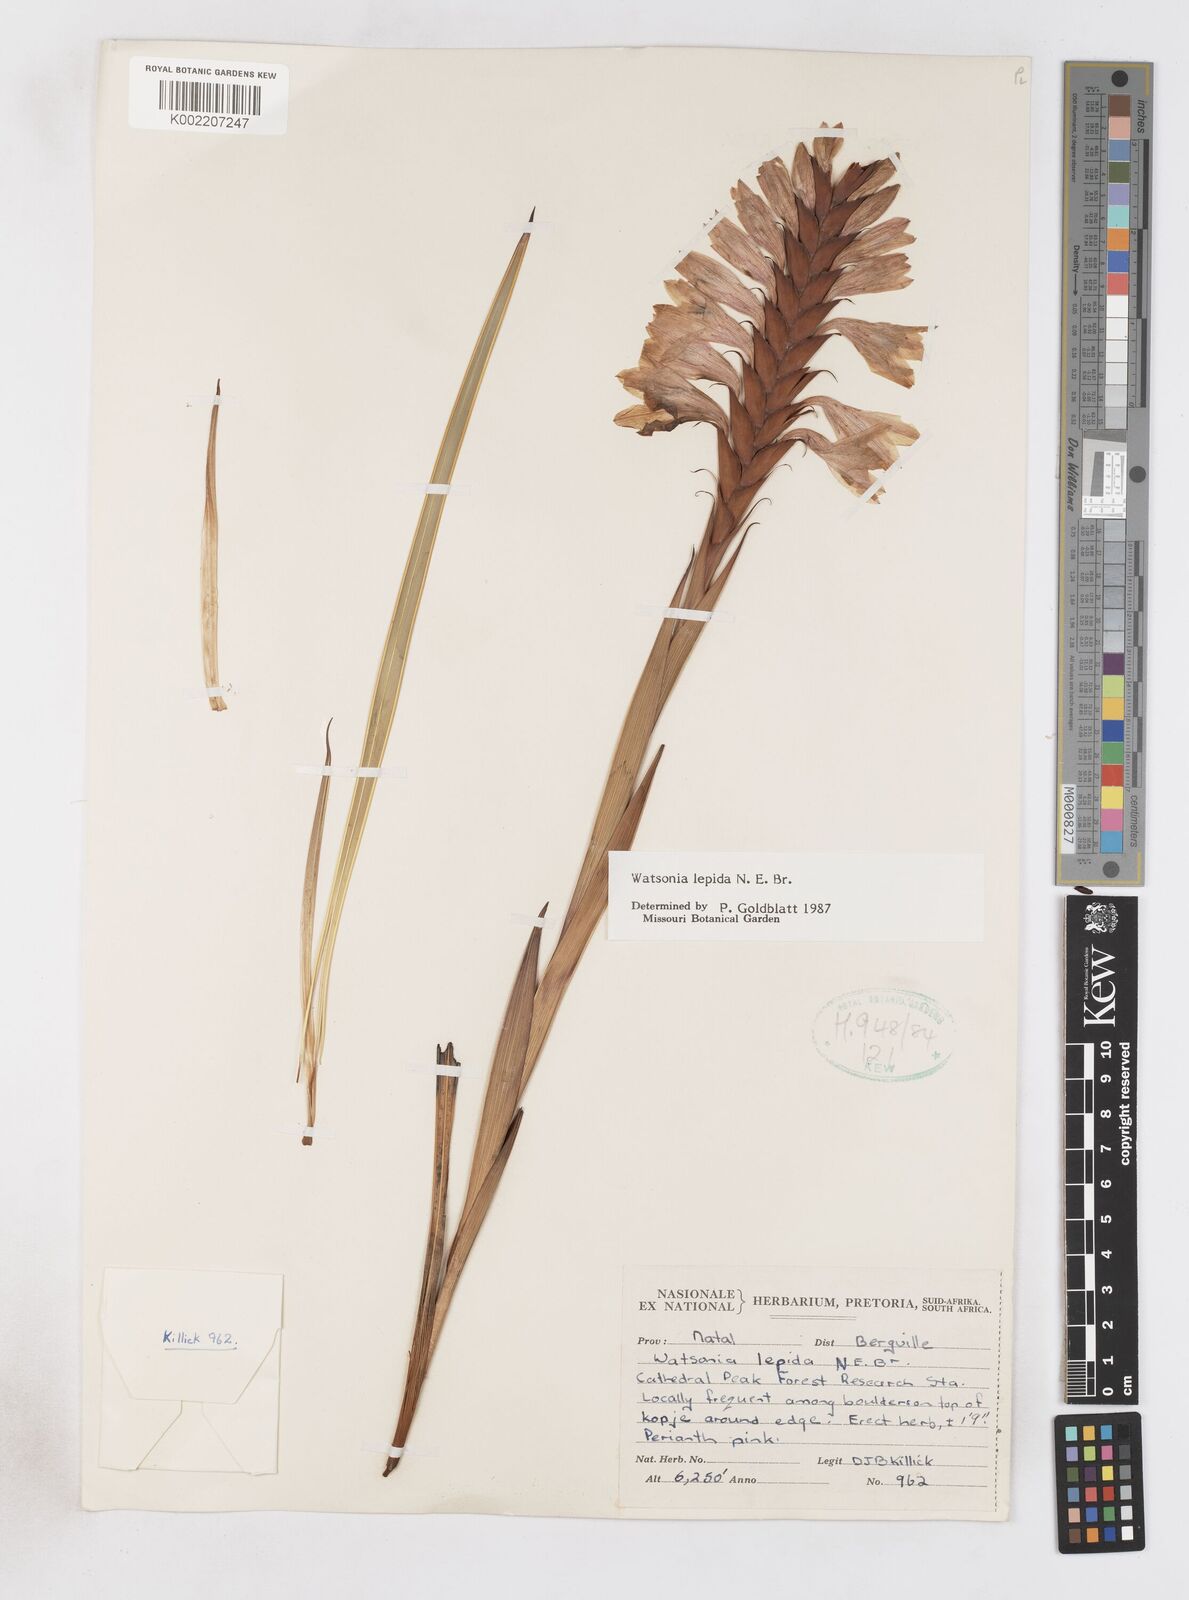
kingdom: Plantae
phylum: Tracheophyta
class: Liliopsida
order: Asparagales
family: Iridaceae
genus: Watsonia
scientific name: Watsonia lepida
